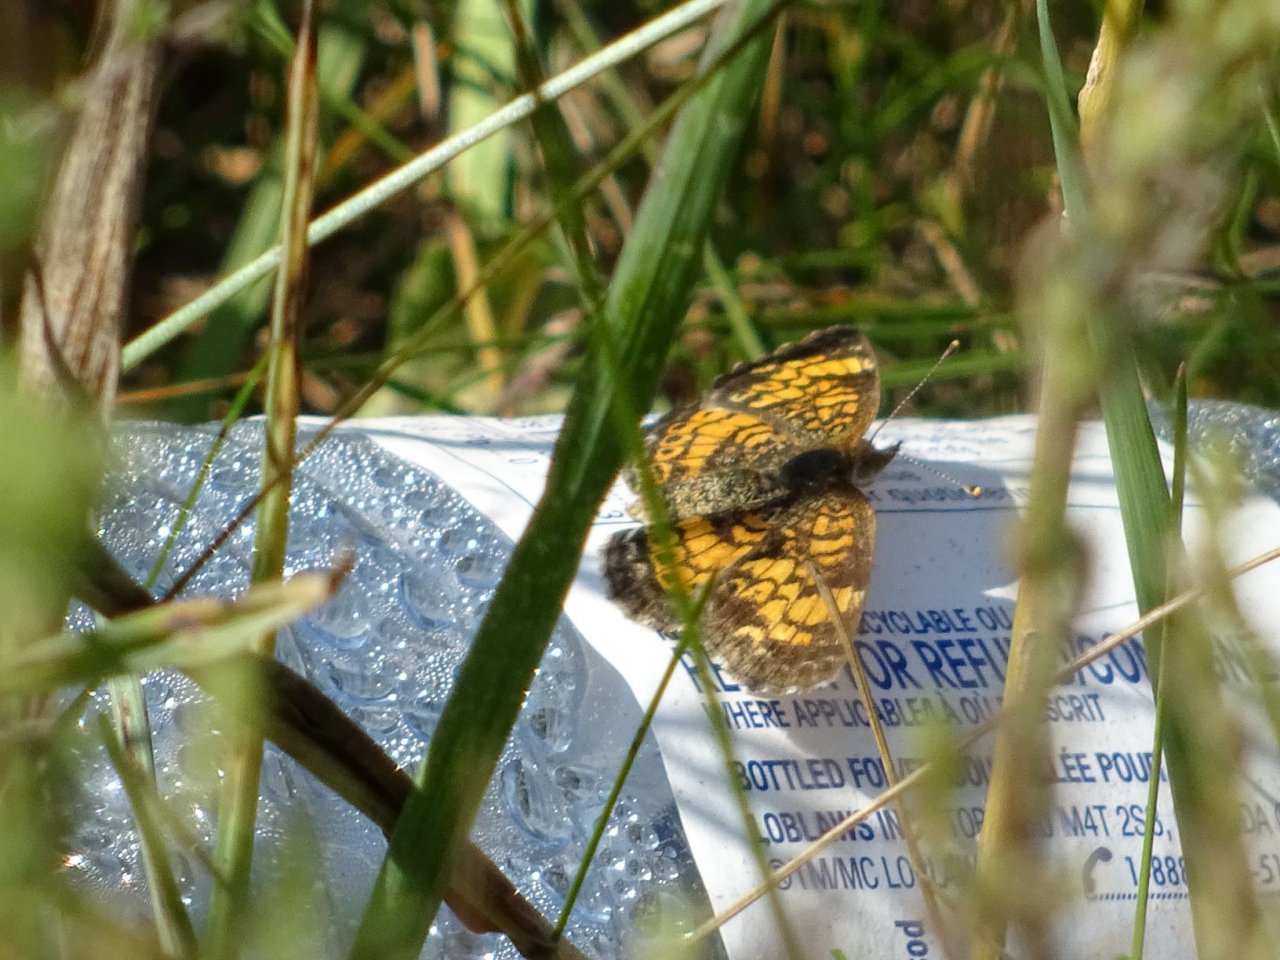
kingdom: Animalia
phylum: Arthropoda
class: Insecta
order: Lepidoptera
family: Nymphalidae
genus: Phyciodes
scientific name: Phyciodes tharos
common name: Northern Crescent
